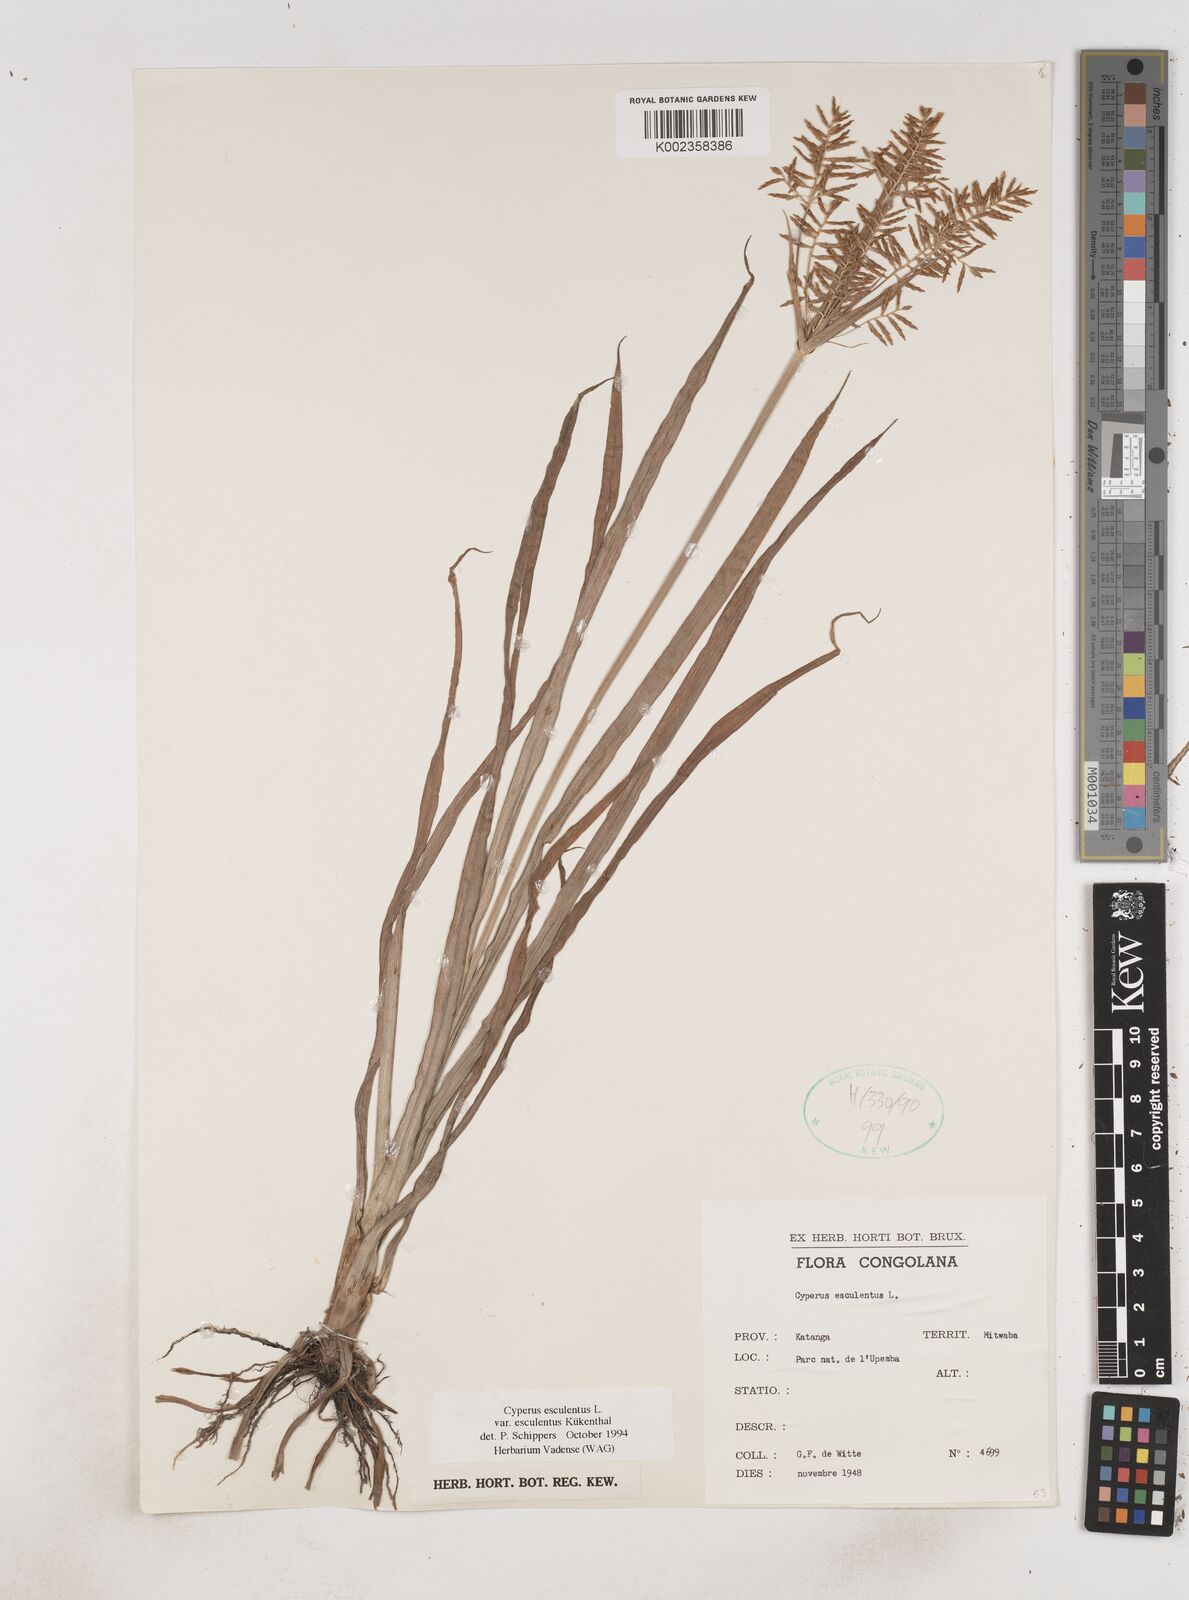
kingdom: Plantae
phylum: Tracheophyta
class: Liliopsida
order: Poales
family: Cyperaceae
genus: Cyperus
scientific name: Cyperus esculentus
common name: Yellow nutsedge
